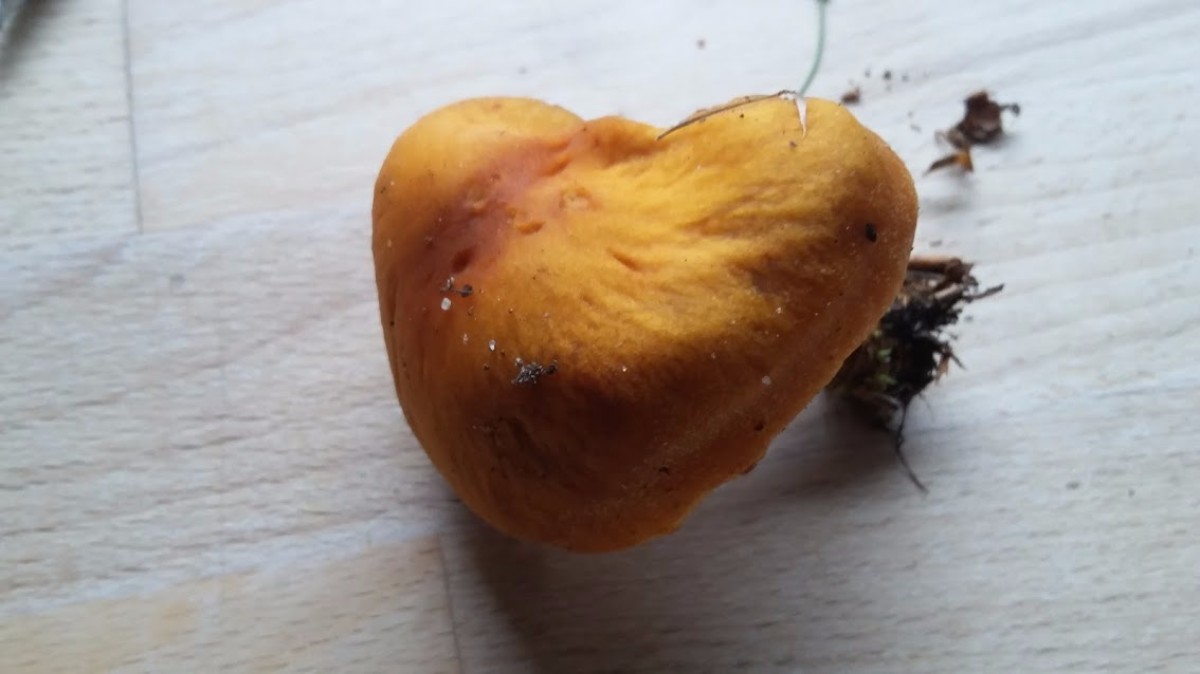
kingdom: Fungi
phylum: Basidiomycota
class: Agaricomycetes
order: Agaricales
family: Cortinariaceae
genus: Aureonarius
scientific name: Aureonarius limonius
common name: orangegul slørhat
